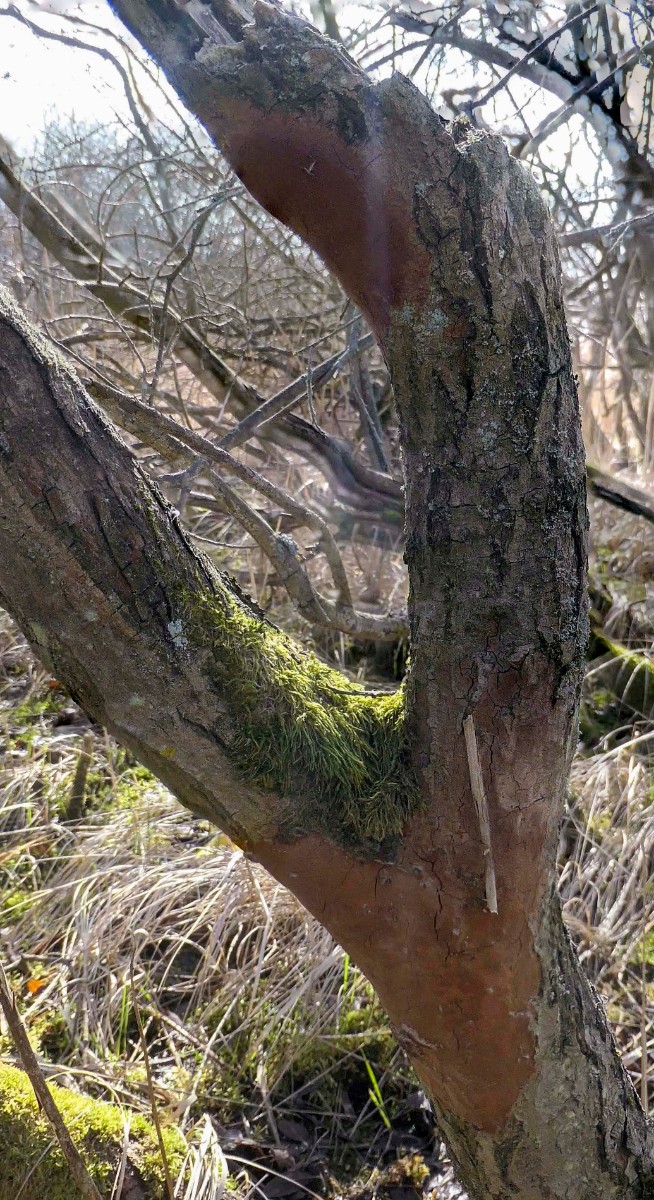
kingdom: Fungi
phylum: Basidiomycota
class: Agaricomycetes
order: Hymenochaetales
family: Hymenochaetaceae
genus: Fomitiporia
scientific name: Fomitiporia punctata
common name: pude-ildporesvamp
